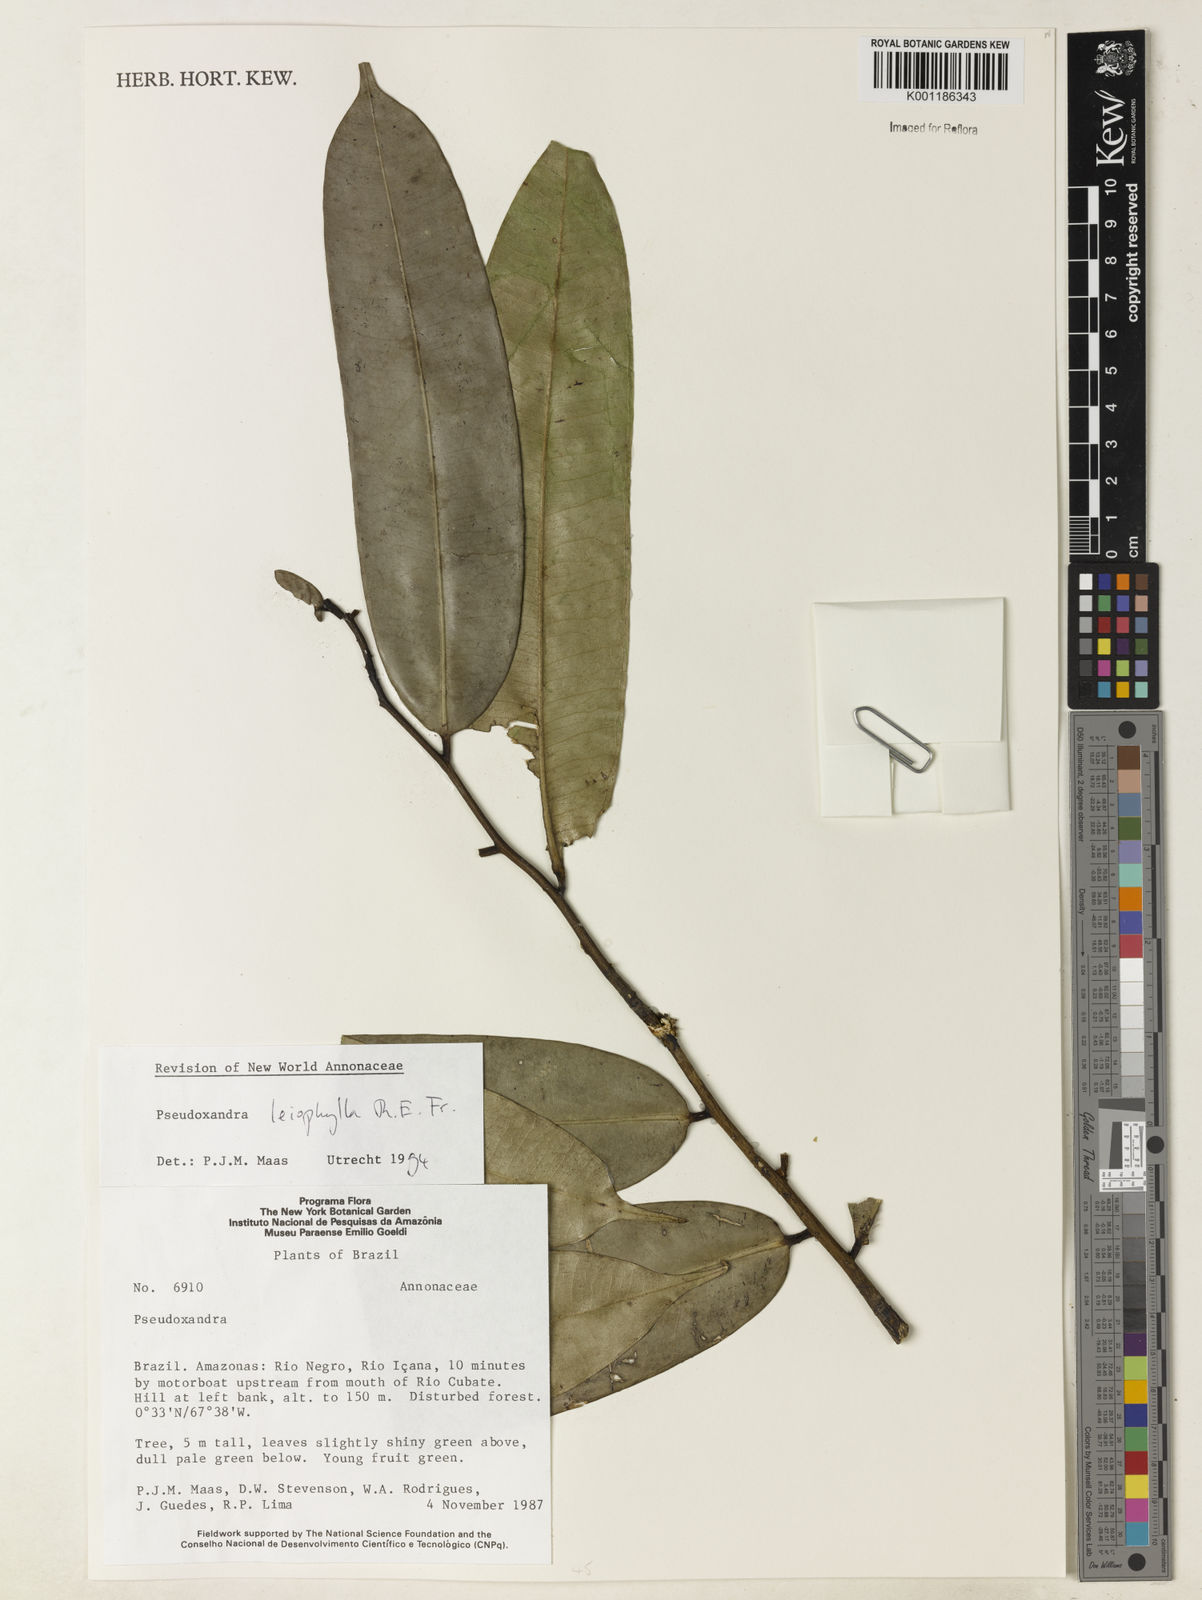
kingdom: Plantae
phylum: Tracheophyta
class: Magnoliopsida
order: Magnoliales
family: Annonaceae
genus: Pseudoxandra
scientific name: Pseudoxandra leiophylla
